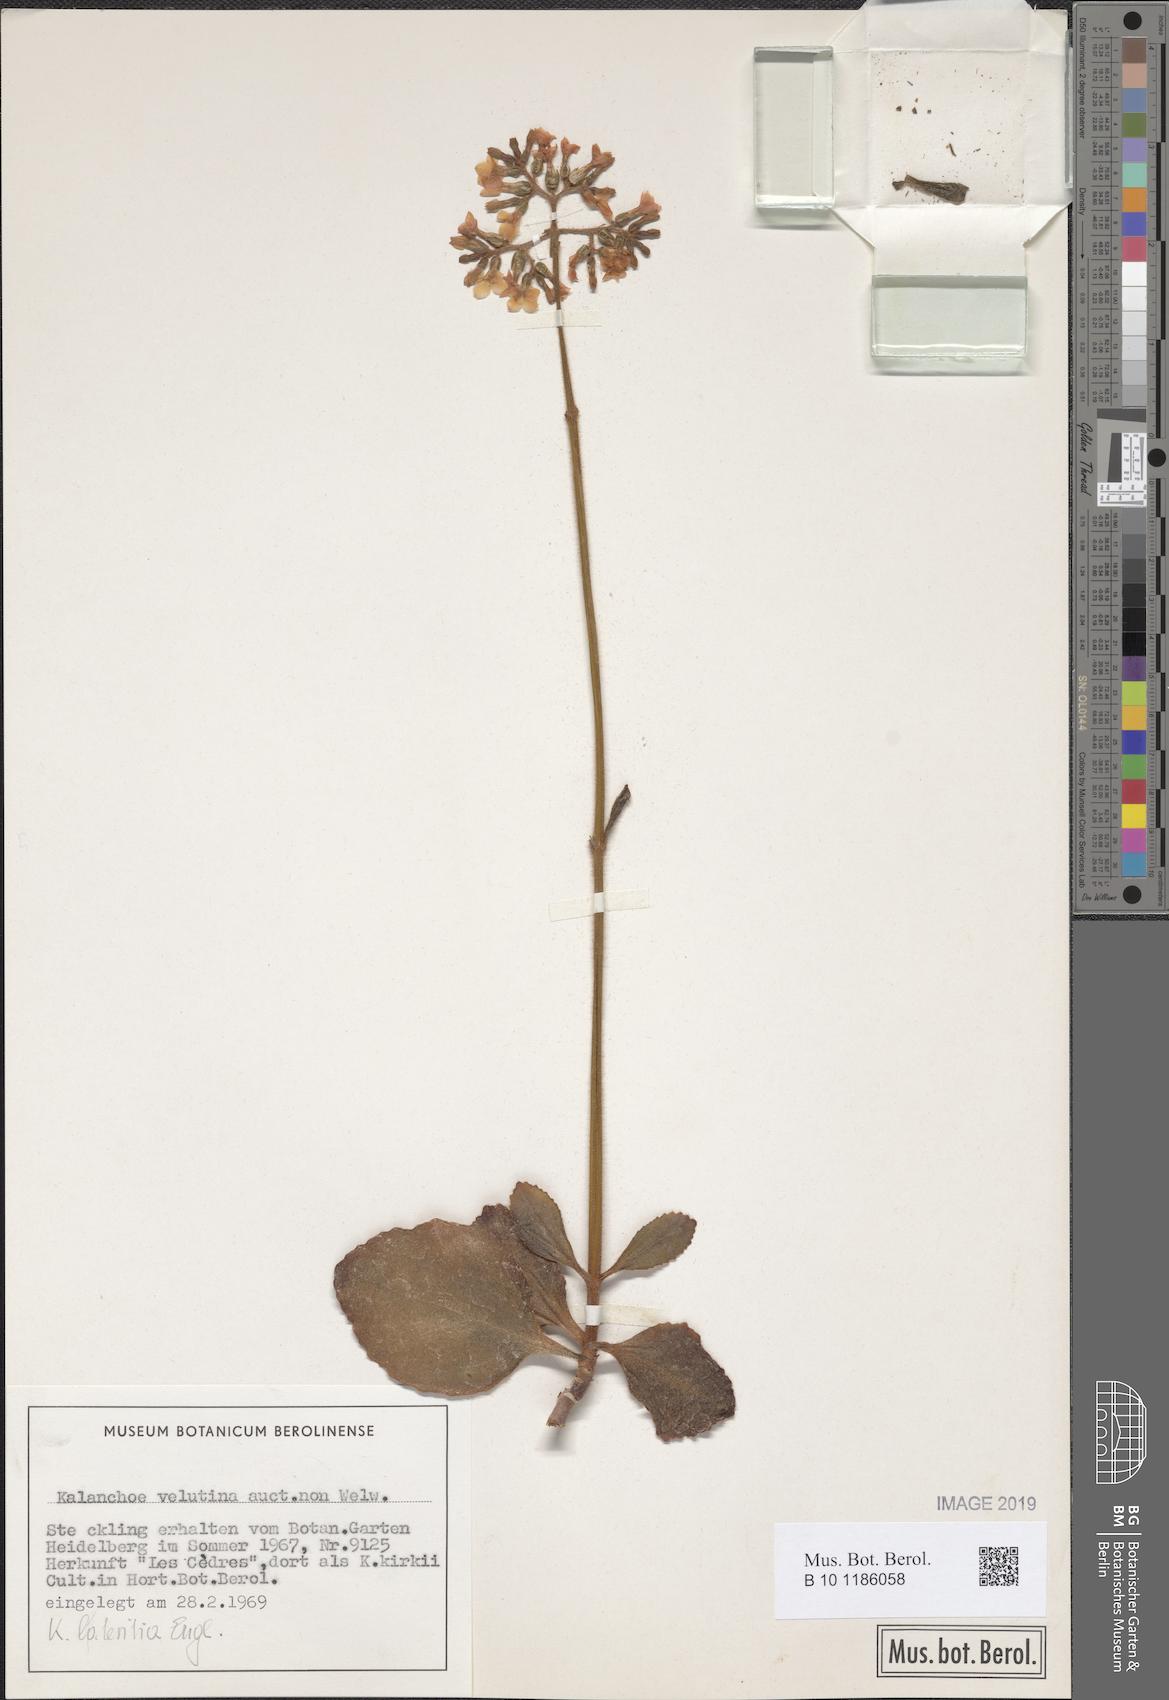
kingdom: Plantae
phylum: Tracheophyta
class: Magnoliopsida
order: Saxifragales
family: Crassulaceae
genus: Kalanchoe
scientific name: Kalanchoe lateritia
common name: Kalanchoe
